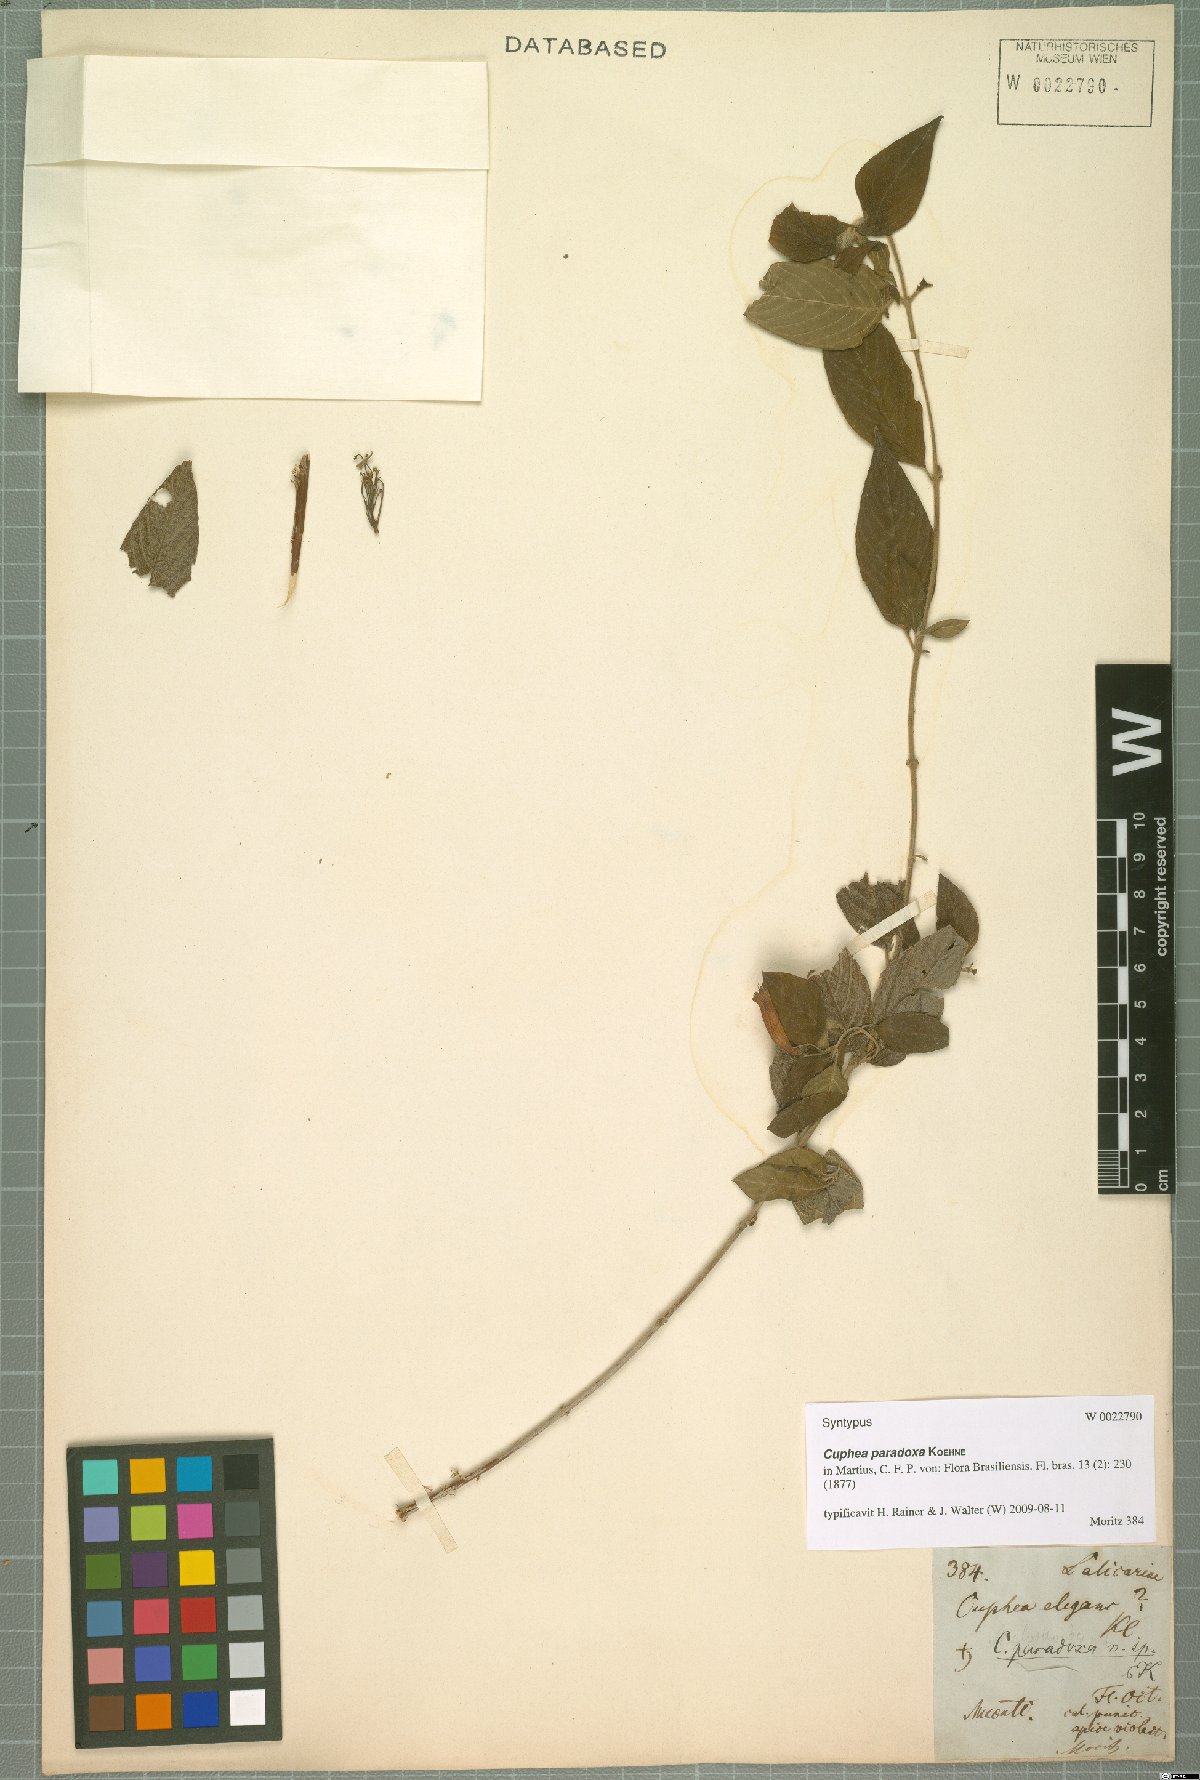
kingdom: Plantae
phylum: Tracheophyta
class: Magnoliopsida
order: Myrtales
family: Lythraceae
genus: Cuphea
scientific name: Cuphea paradoxa
